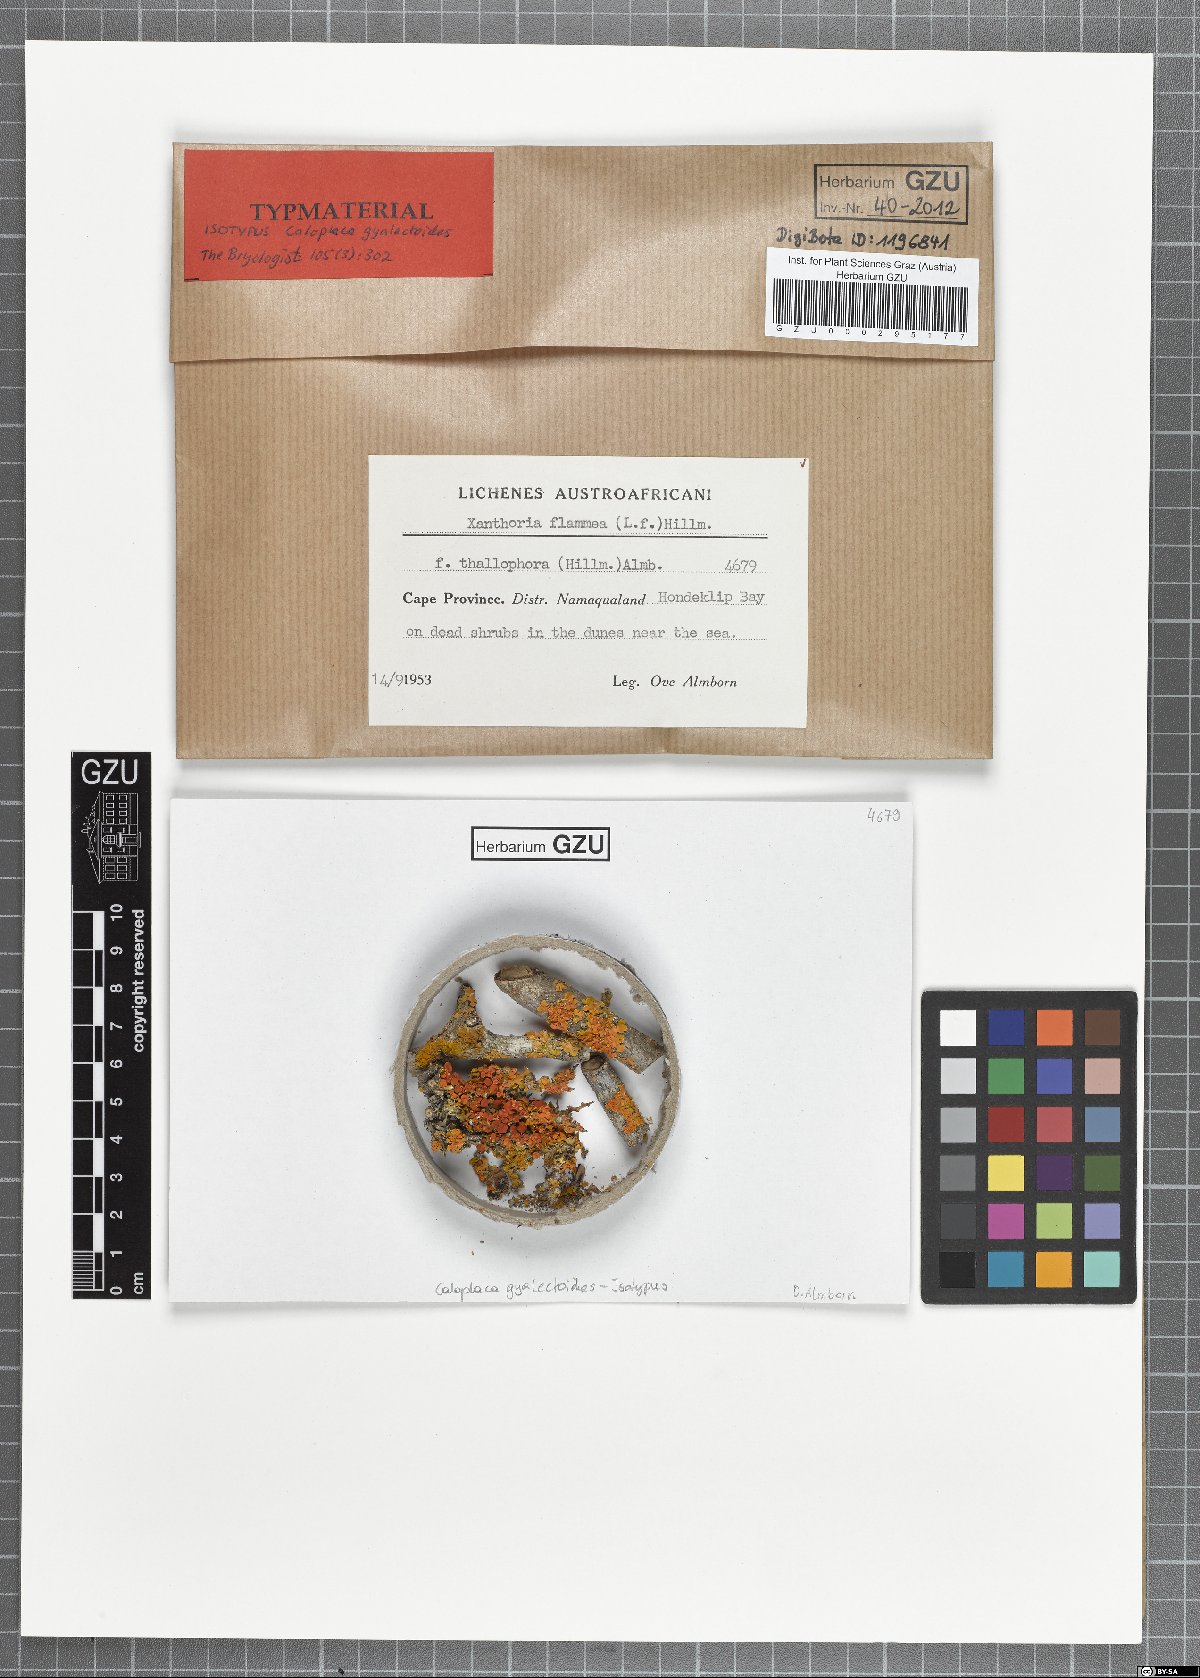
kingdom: Fungi
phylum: Ascomycota
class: Lecanoromycetes
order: Teloschistales
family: Teloschistaceae
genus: Caloplaca
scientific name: Caloplaca gyalectoides
